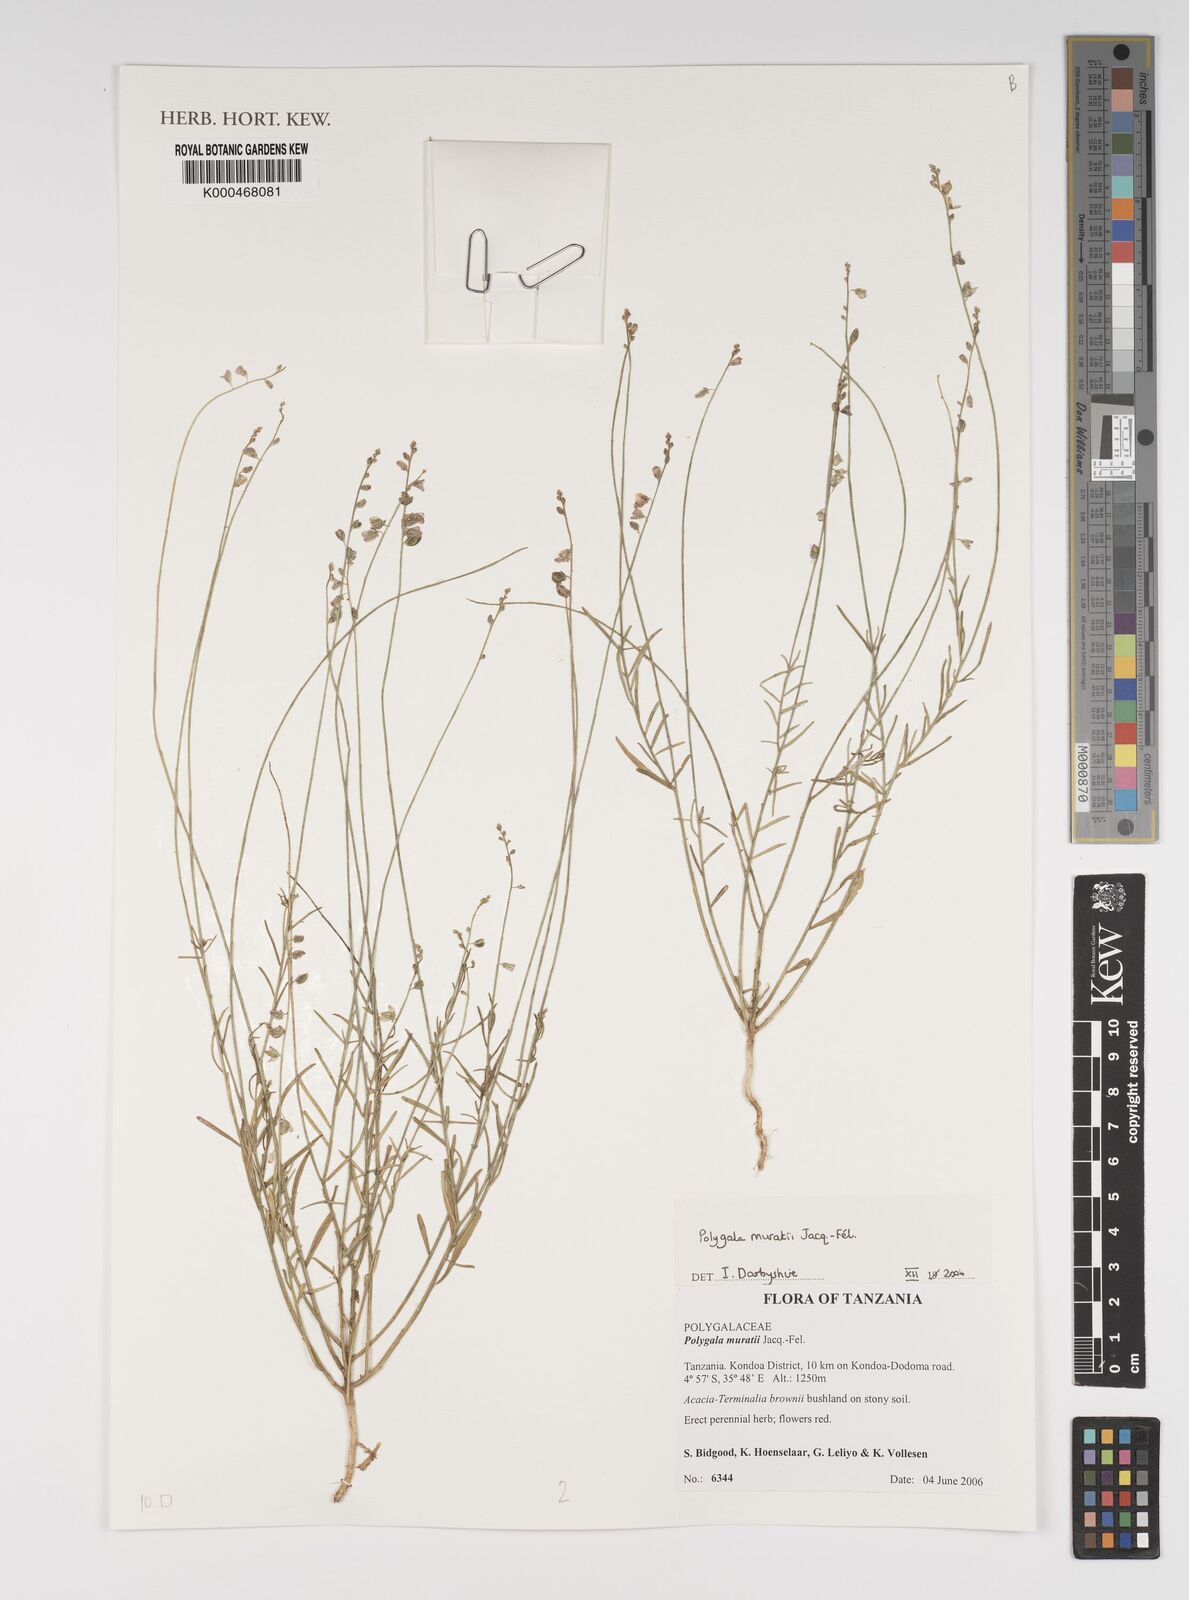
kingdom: Plantae
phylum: Tracheophyta
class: Magnoliopsida
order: Fabales
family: Polygalaceae
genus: Polygala
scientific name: Polygala muratii
